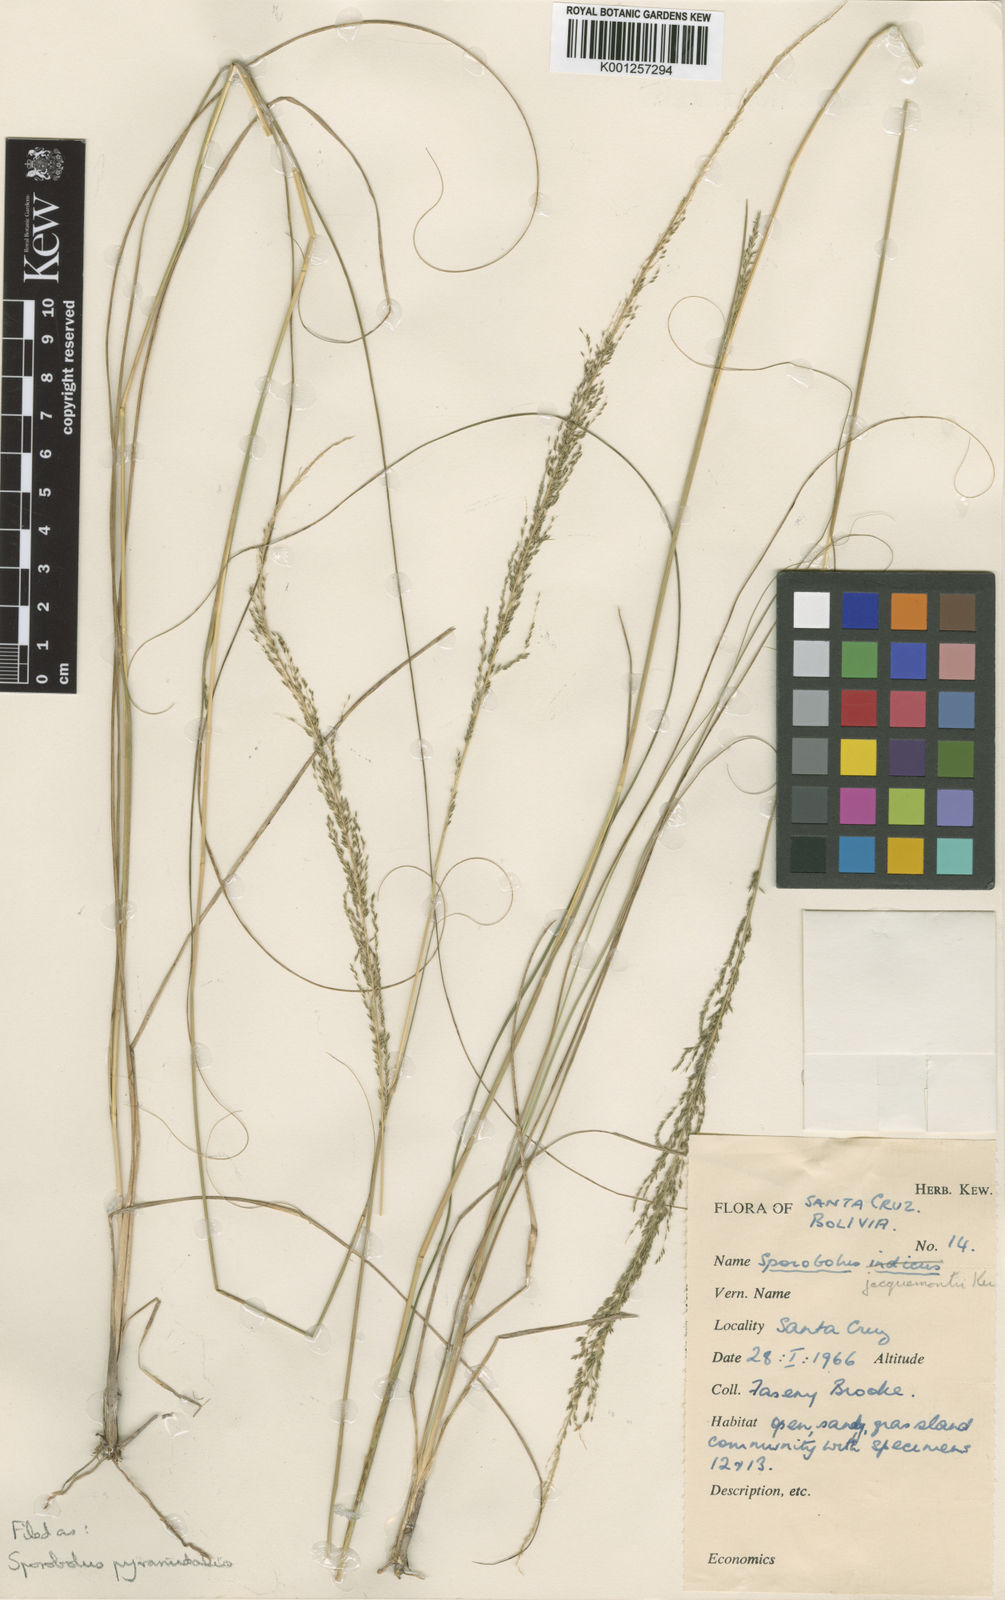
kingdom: Plantae
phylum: Tracheophyta
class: Liliopsida
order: Poales
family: Poaceae
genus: Sporobolus
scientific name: Sporobolus pyramidalis
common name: West indian dropseed
